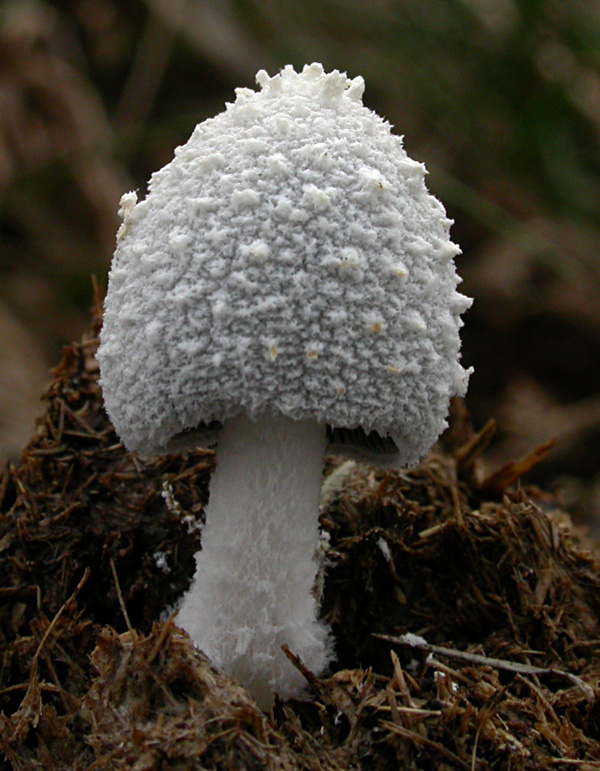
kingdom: Fungi
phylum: Basidiomycota
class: Agaricomycetes
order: Agaricales
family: Psathyrellaceae
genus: Coprinopsis
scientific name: Coprinopsis nivea
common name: snehvid blækhat
